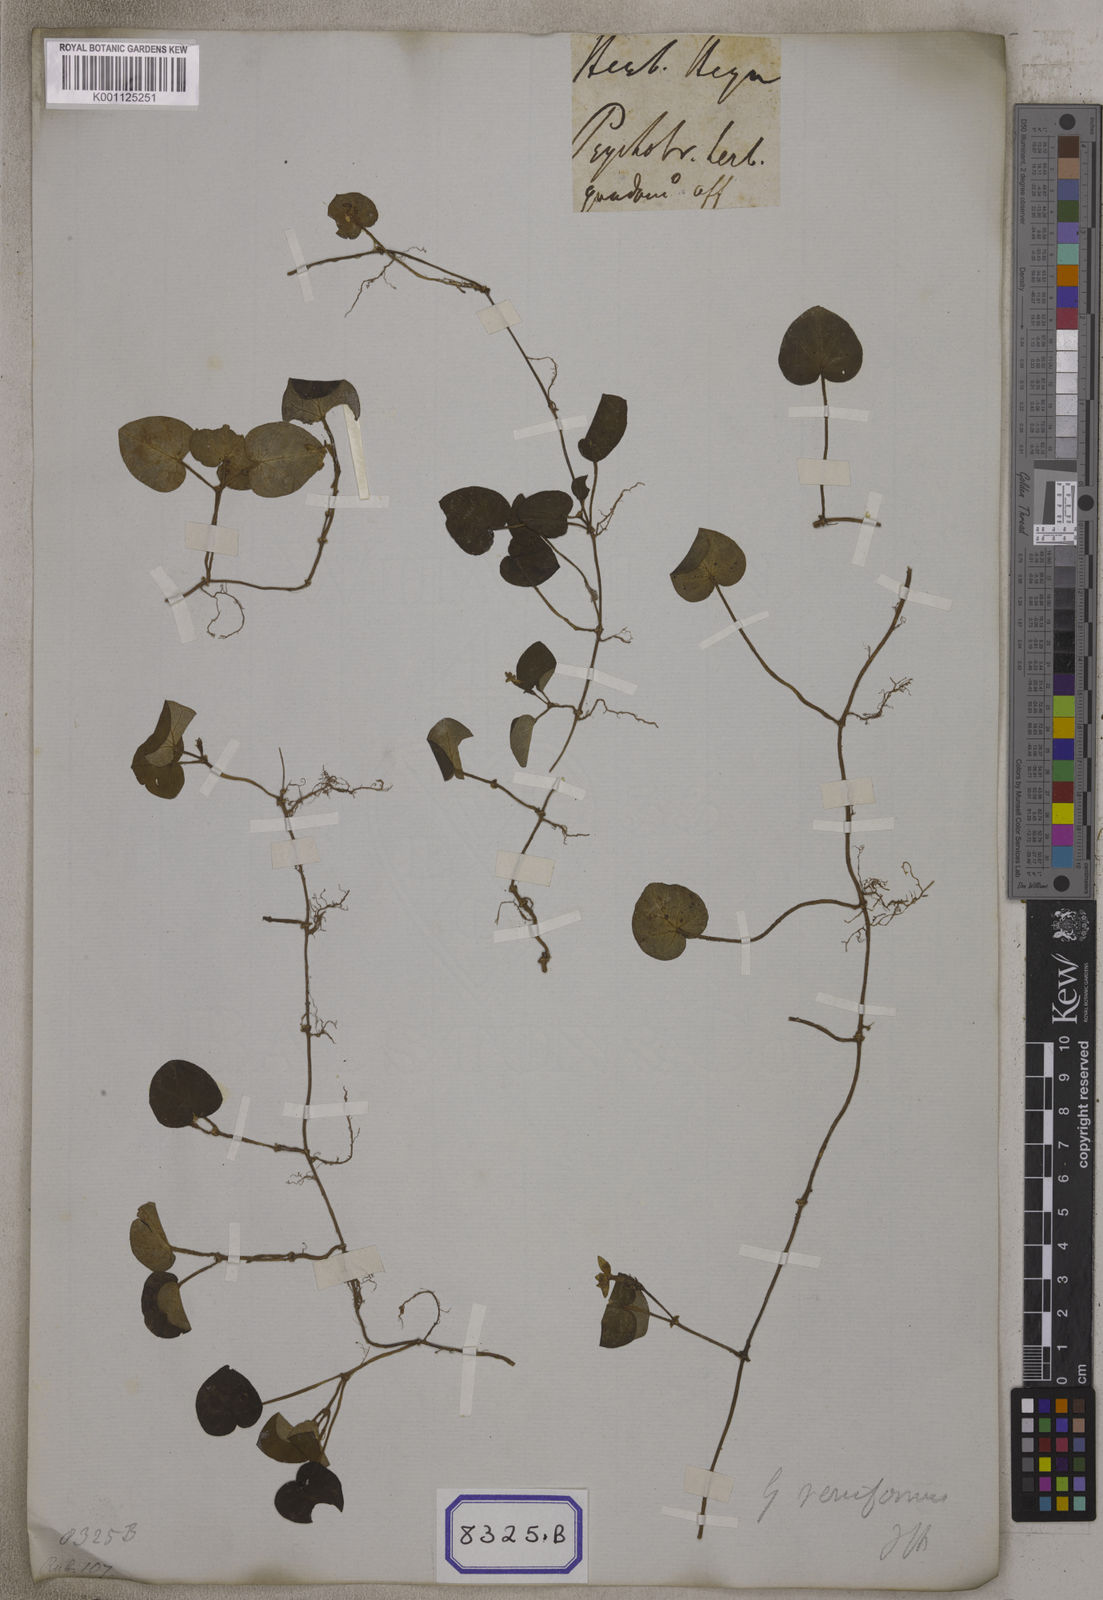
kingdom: Plantae
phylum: Tracheophyta
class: Magnoliopsida
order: Gentianales
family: Rubiaceae
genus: Geophila
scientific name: Geophila herbacea
